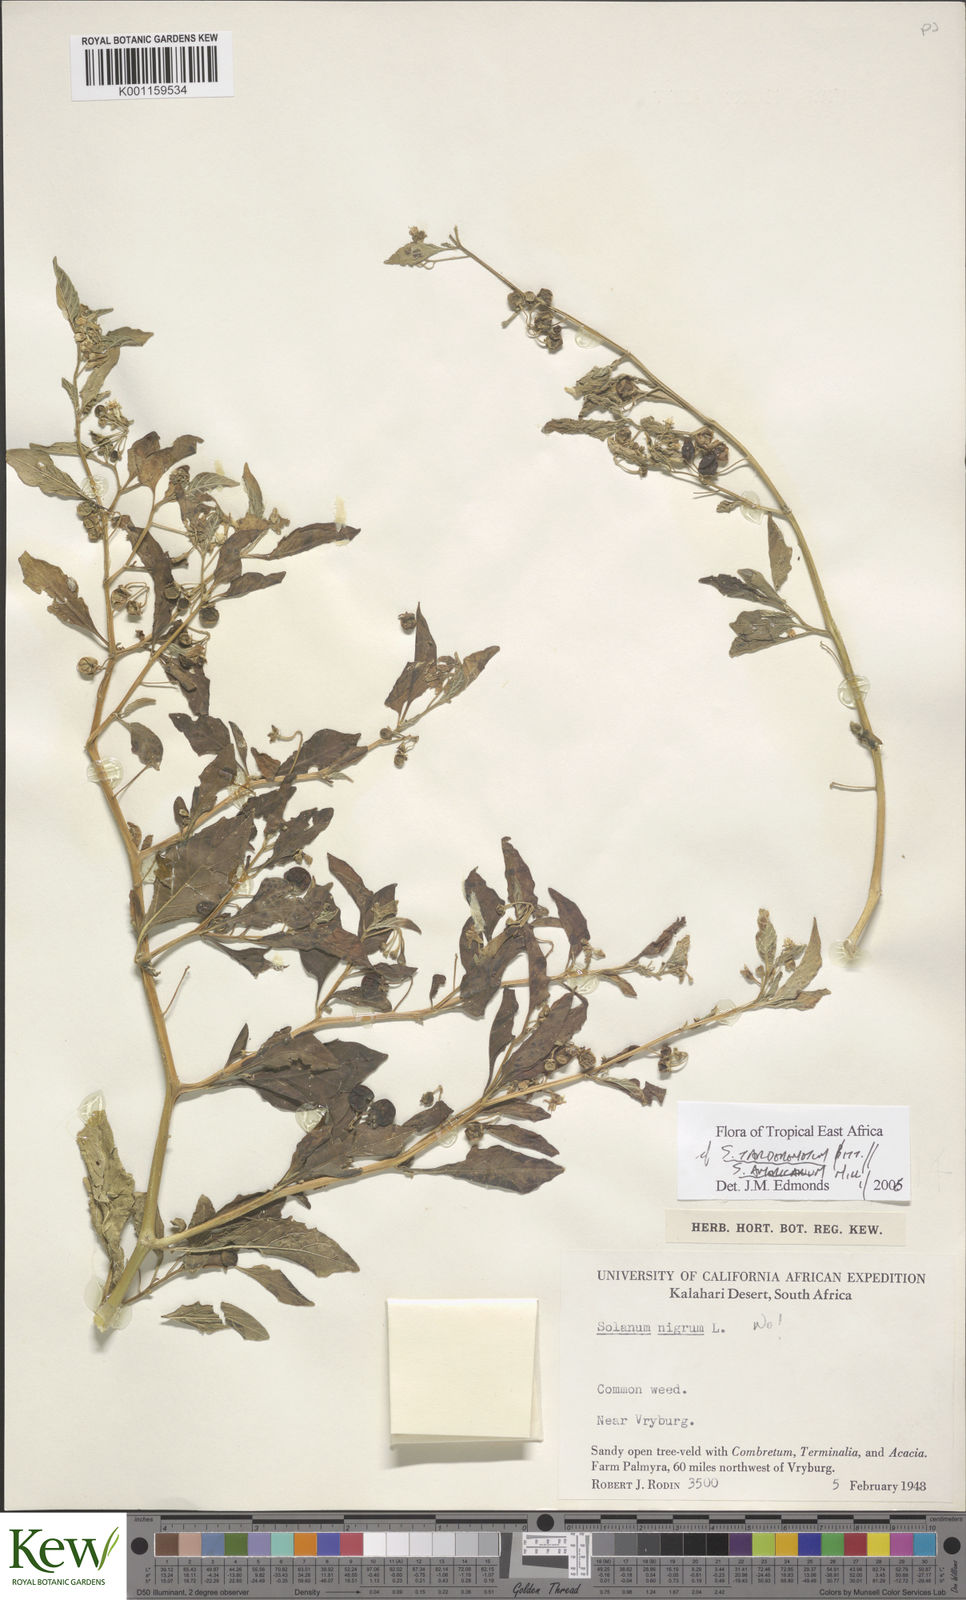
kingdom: Plantae
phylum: Tracheophyta
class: Magnoliopsida
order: Solanales
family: Solanaceae
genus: Solanum
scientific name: Solanum tarderemotum
